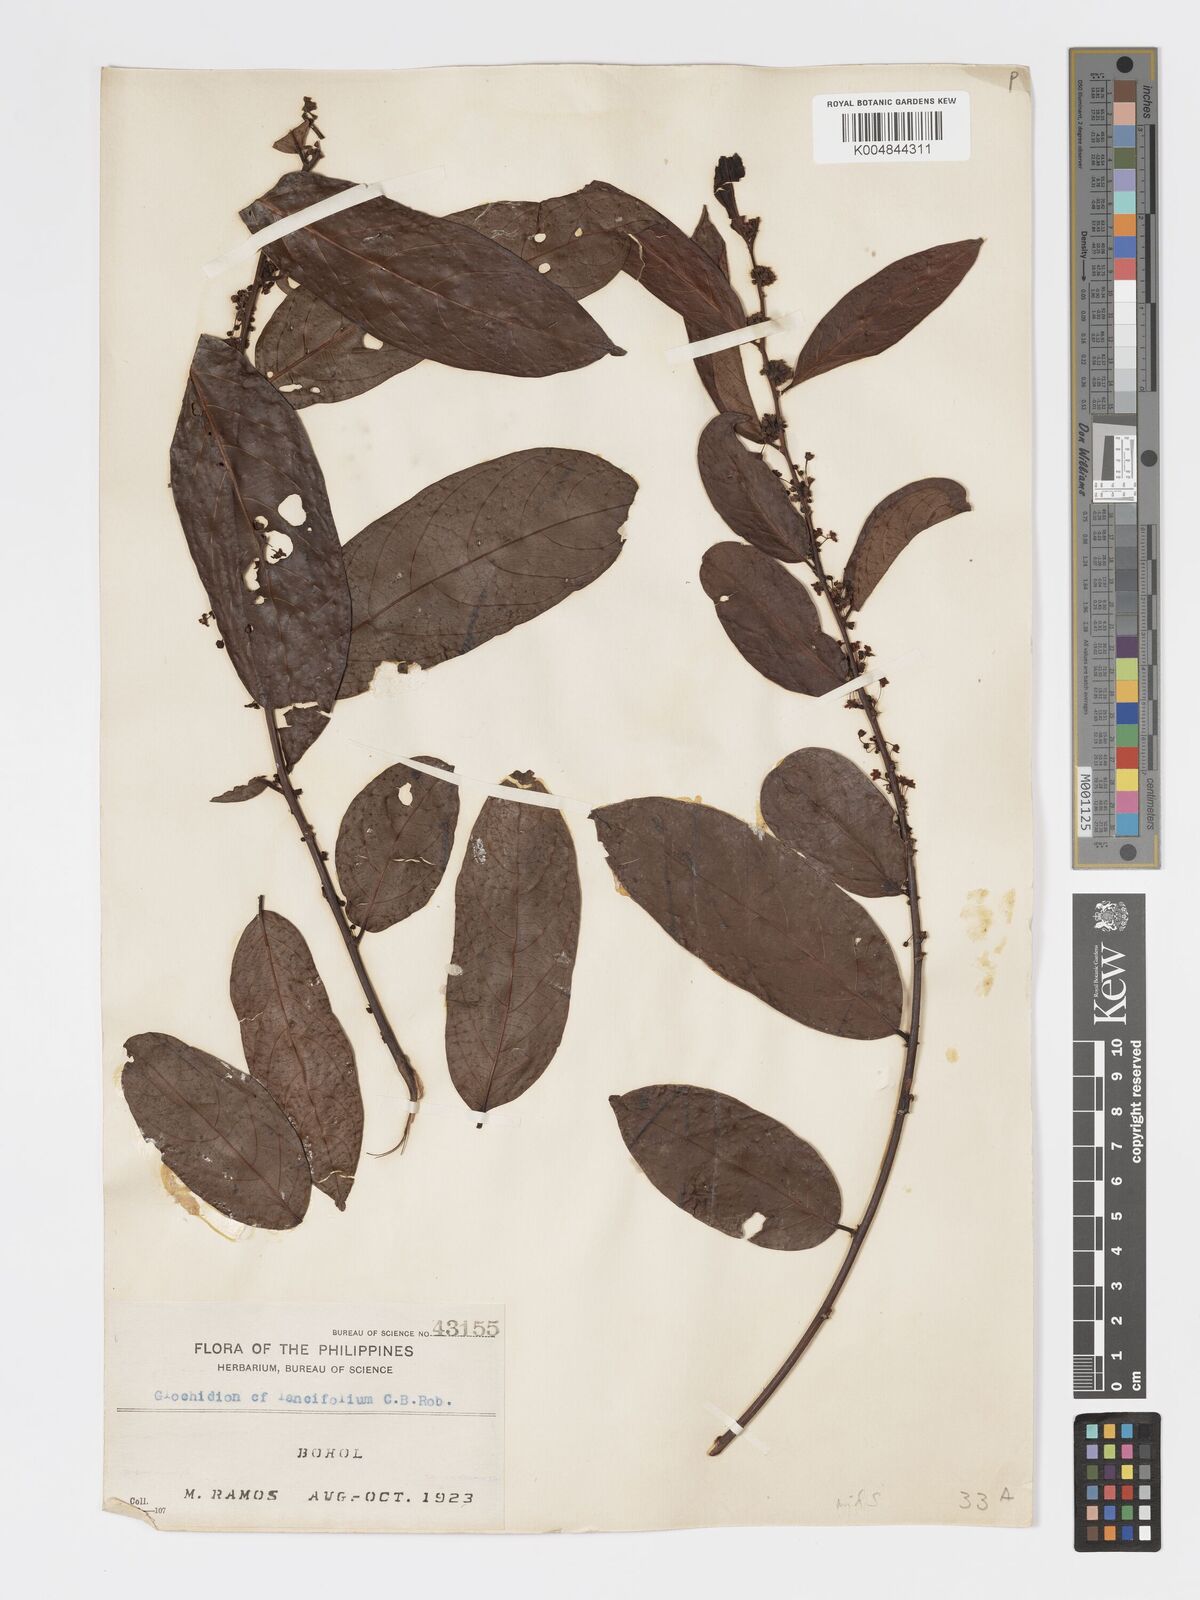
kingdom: Plantae
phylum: Tracheophyta
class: Magnoliopsida
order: Malpighiales
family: Phyllanthaceae
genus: Glochidion
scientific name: Glochidion zeylanicum
